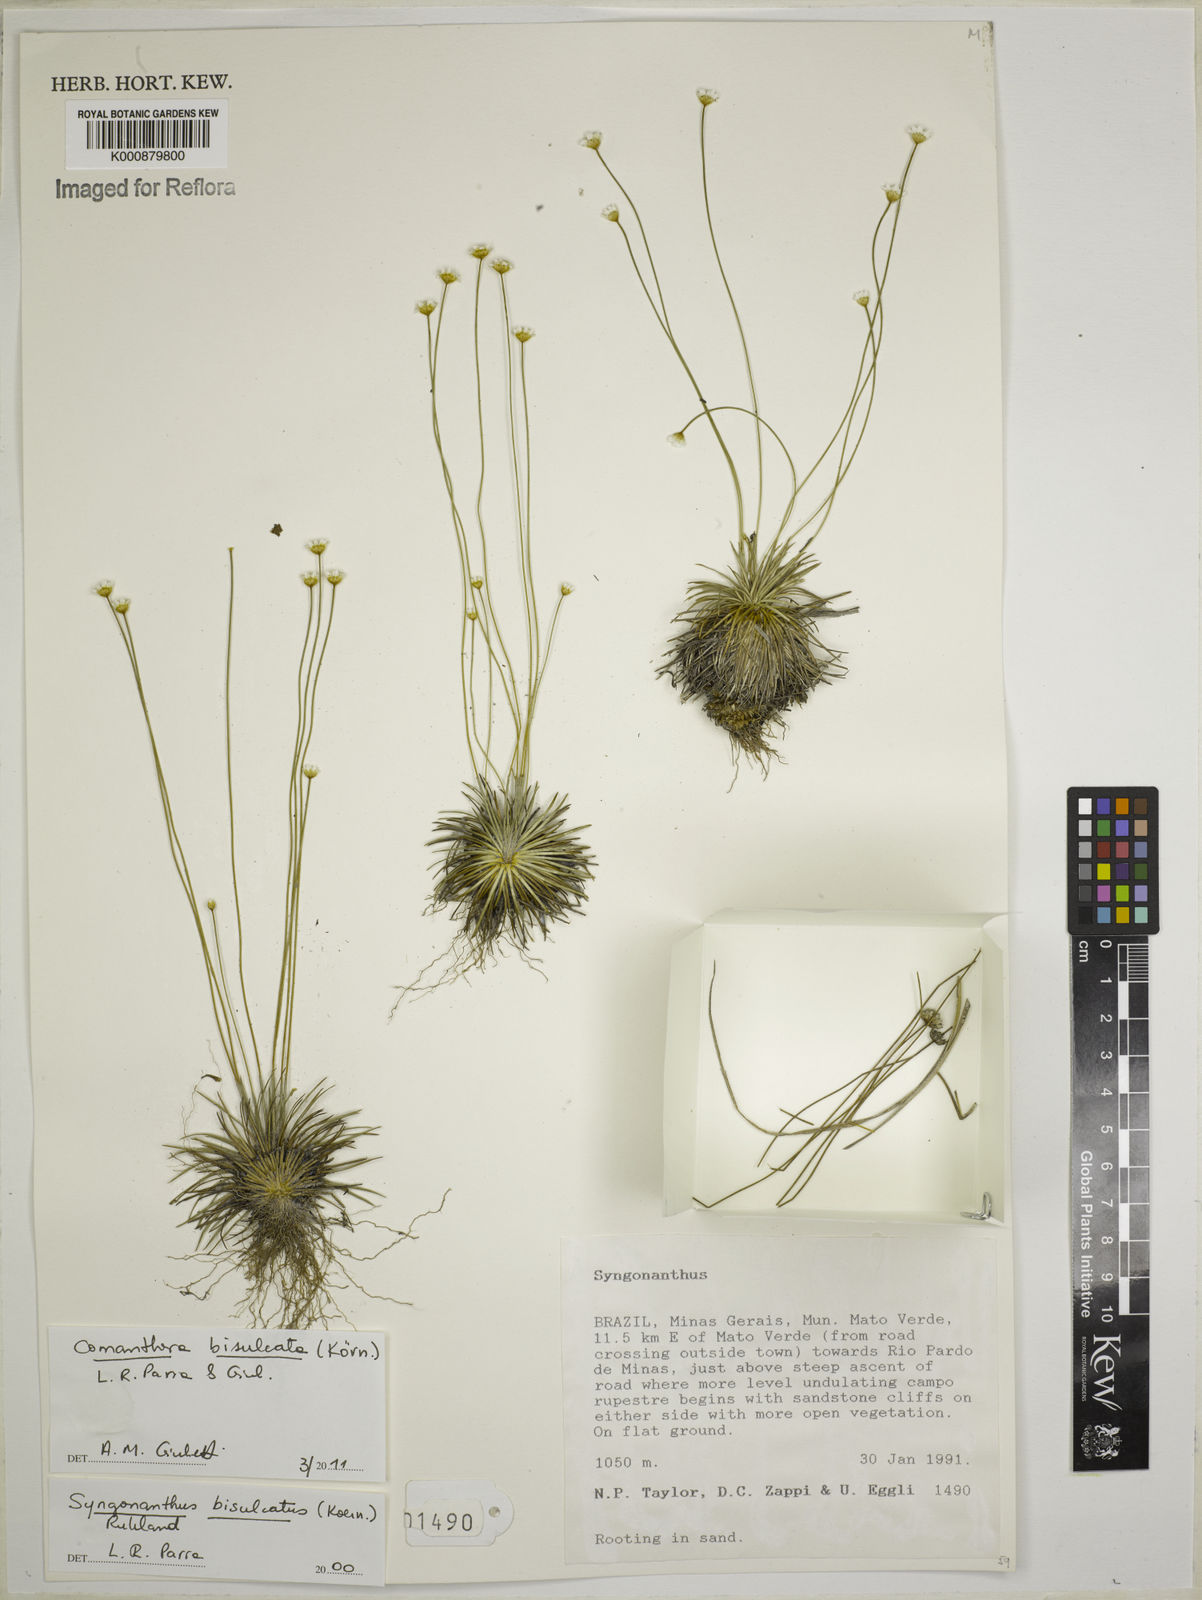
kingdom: Plantae
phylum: Tracheophyta
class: Liliopsida
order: Poales
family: Eriocaulaceae
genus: Comanthera
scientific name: Comanthera
